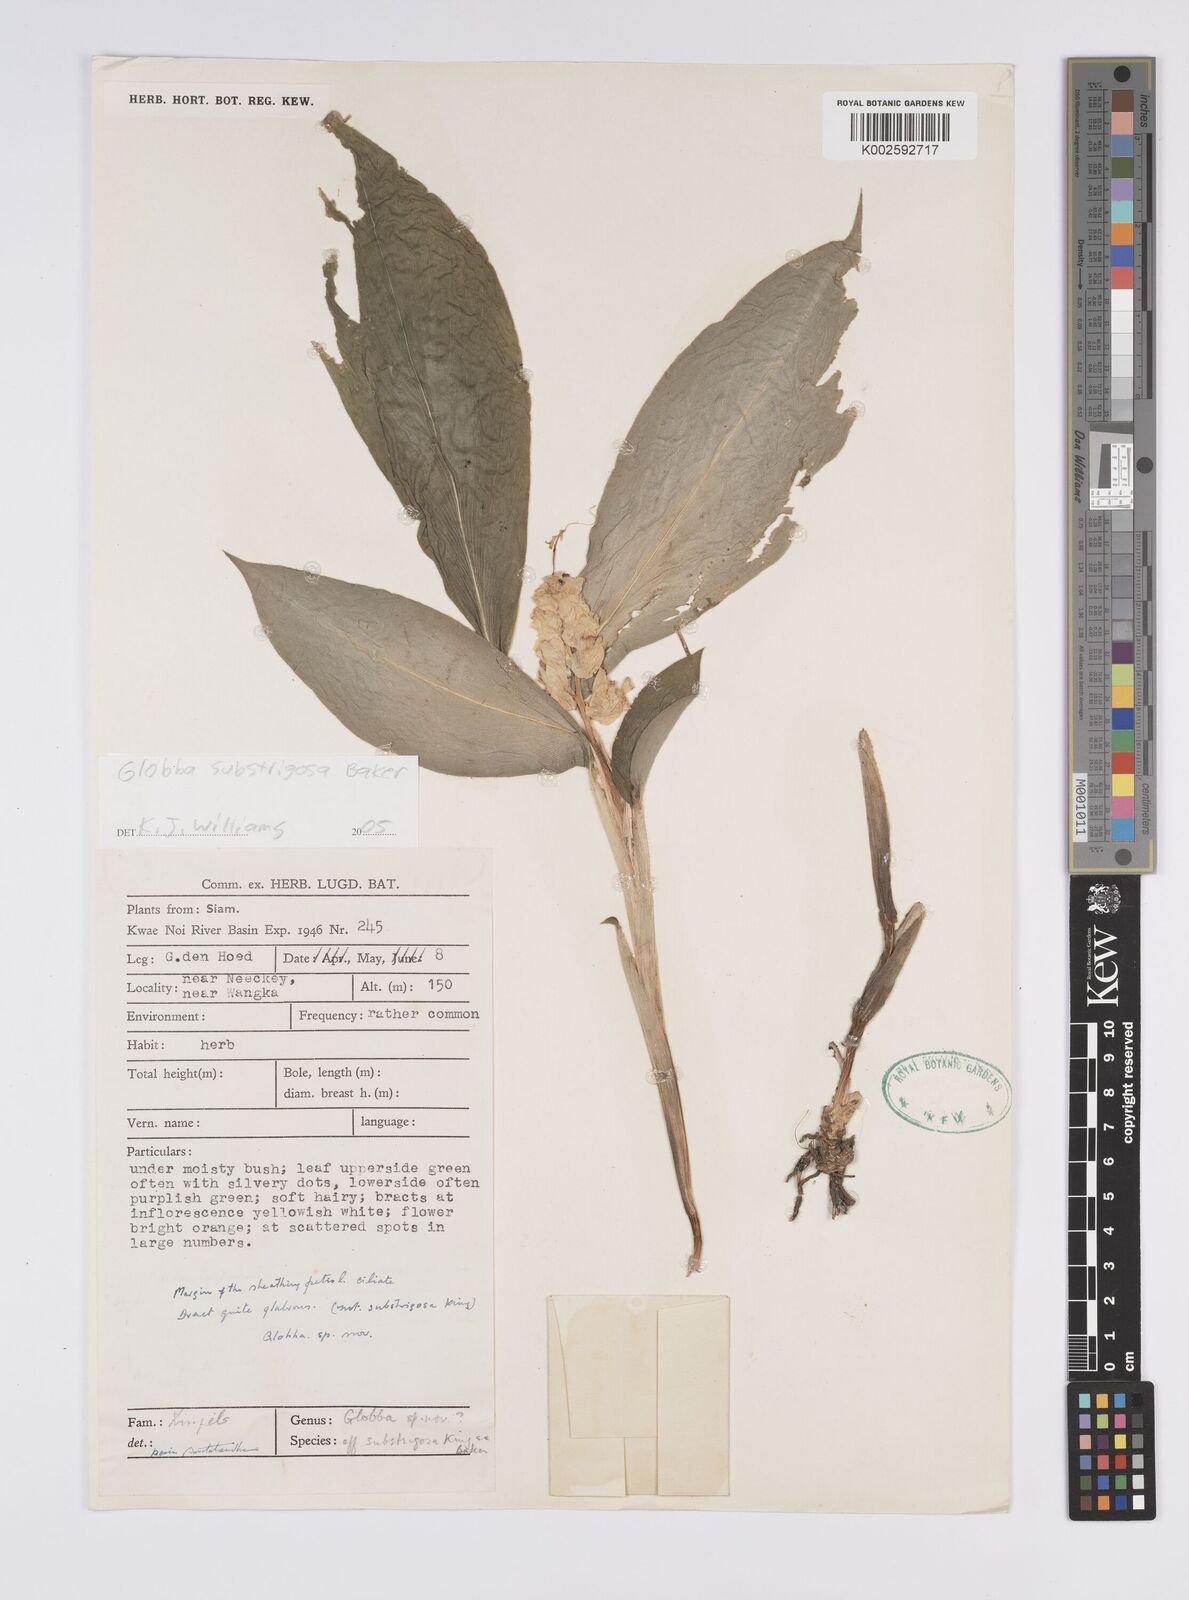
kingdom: Plantae
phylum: Tracheophyta
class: Liliopsida
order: Zingiberales
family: Zingiberaceae
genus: Globba
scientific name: Globba substrigosa
